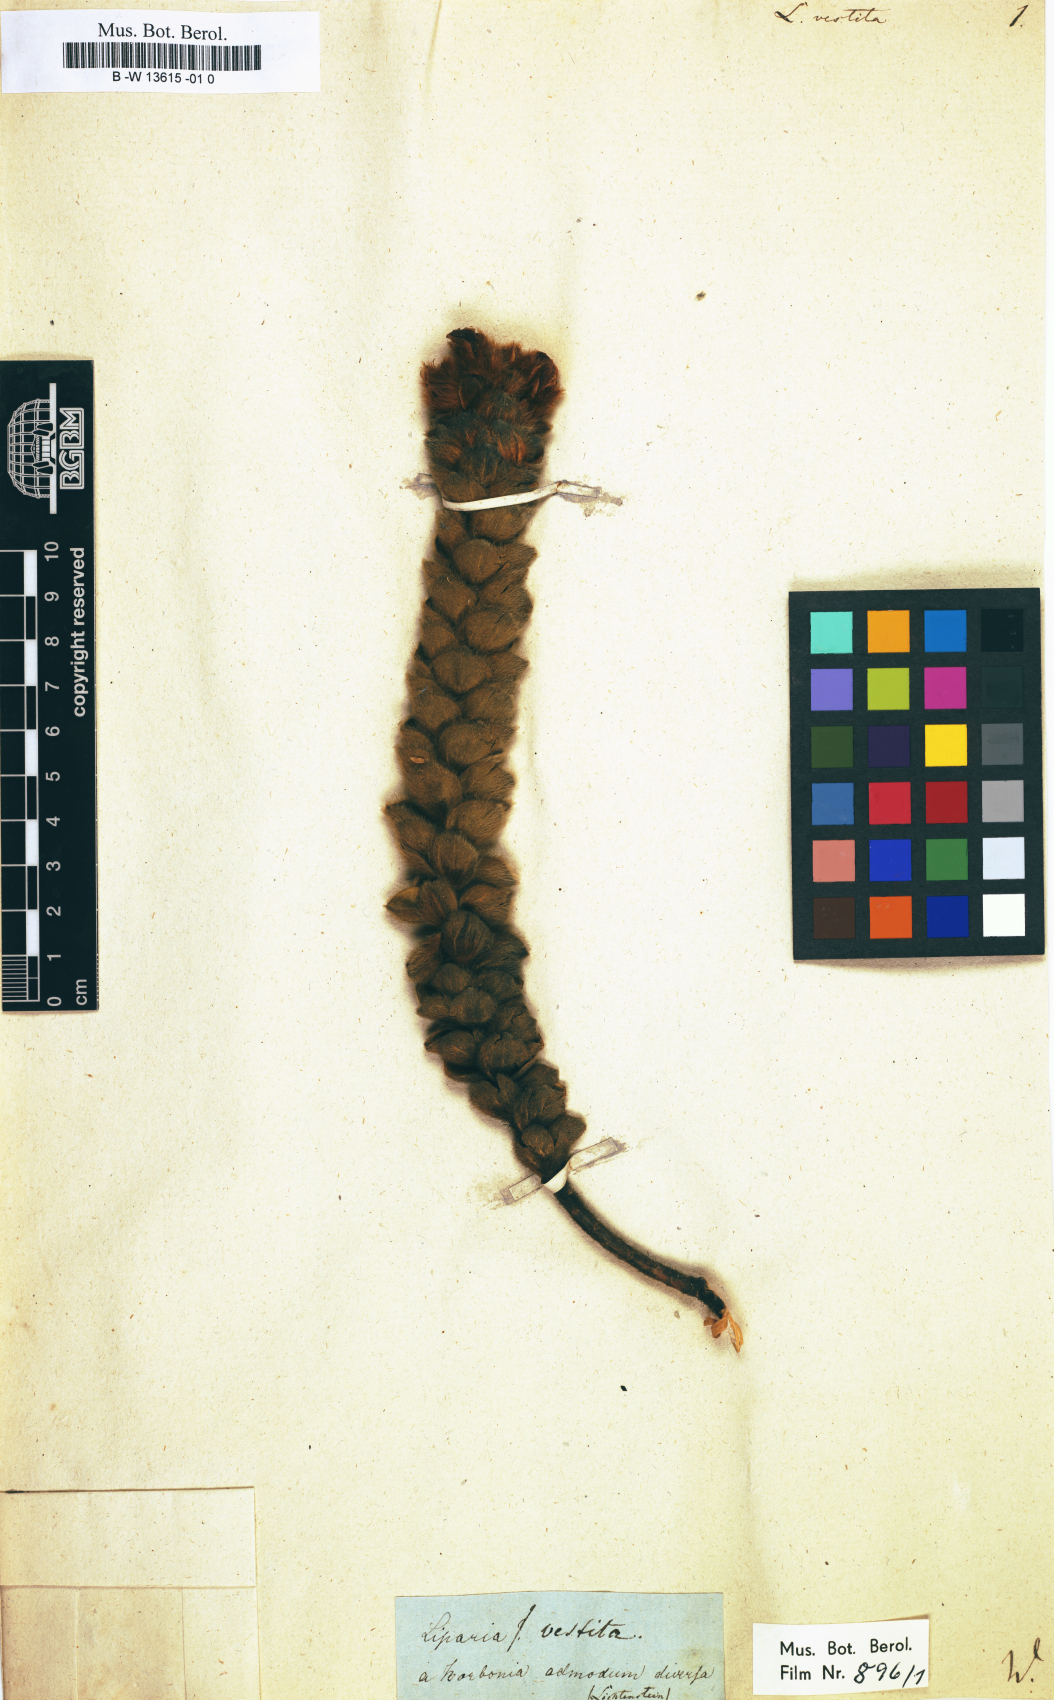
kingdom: Plantae
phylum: Tracheophyta
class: Magnoliopsida
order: Fabales
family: Fabaceae
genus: Liparia
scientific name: Liparia vestita
